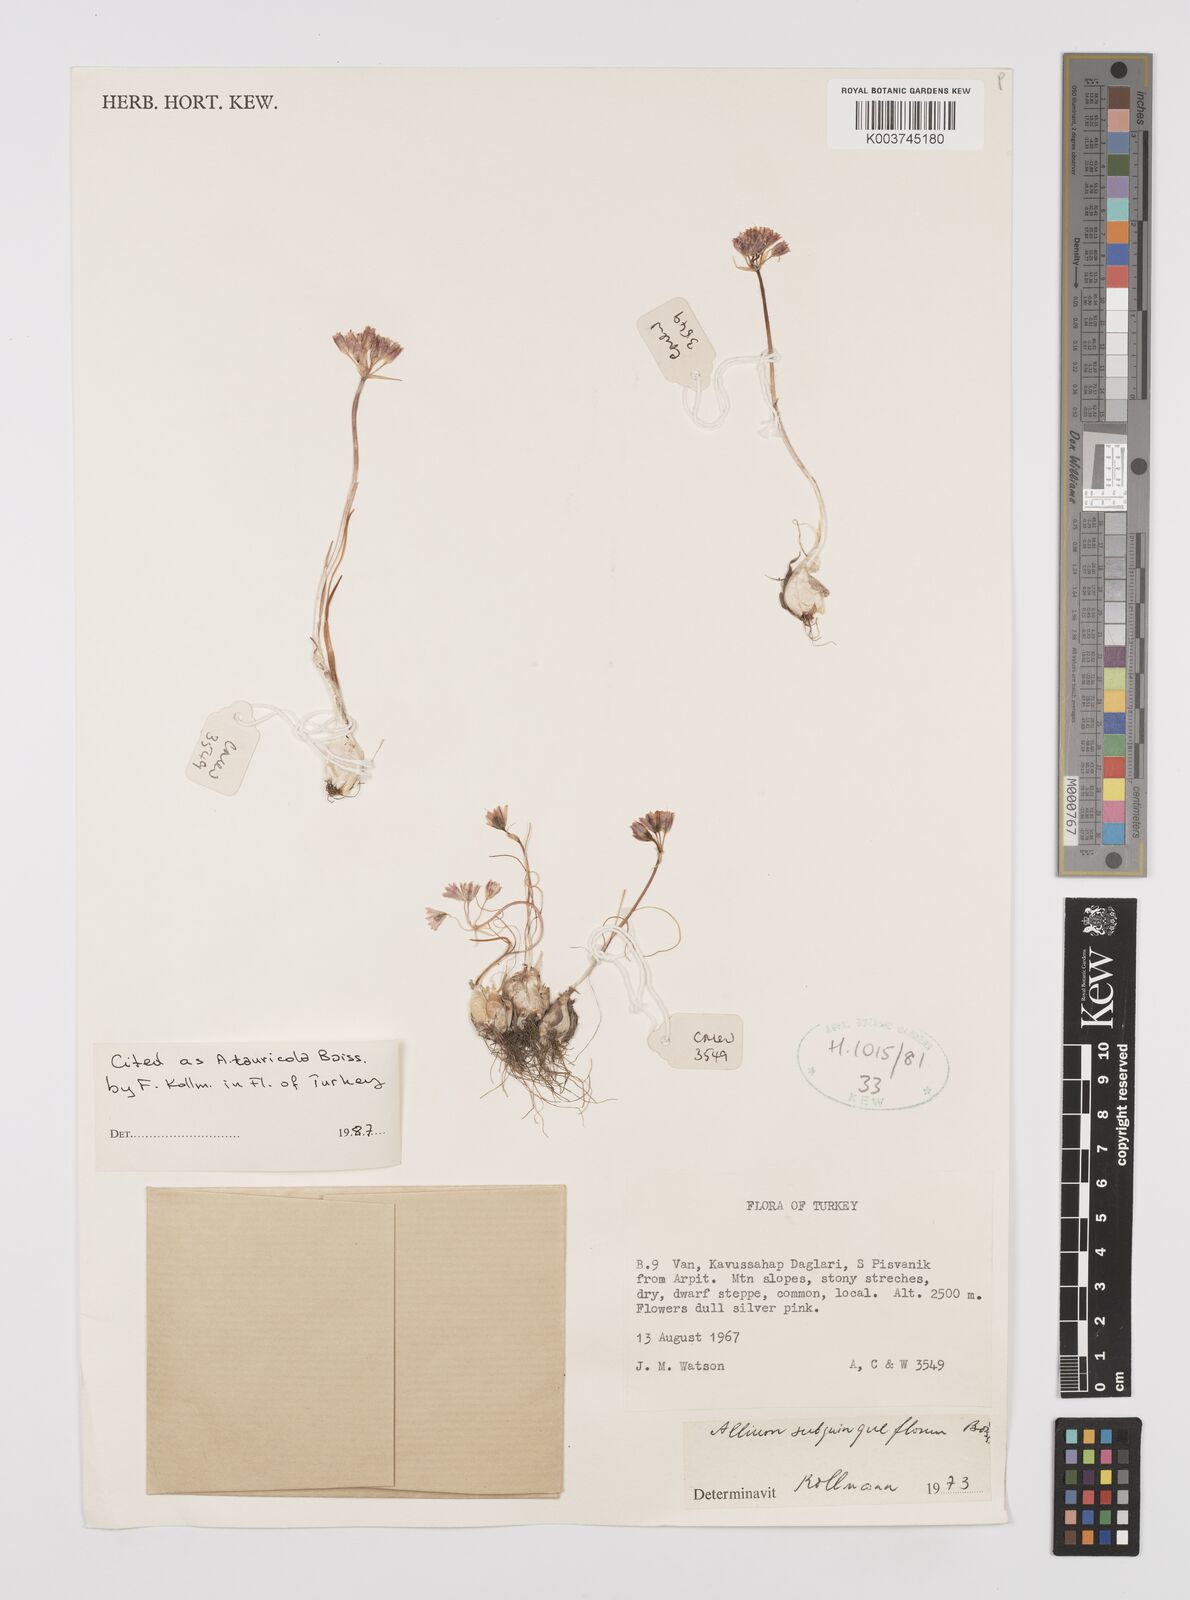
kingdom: Plantae
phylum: Tracheophyta
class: Liliopsida
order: Asparagales
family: Amaryllidaceae
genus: Allium
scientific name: Allium tauricola
